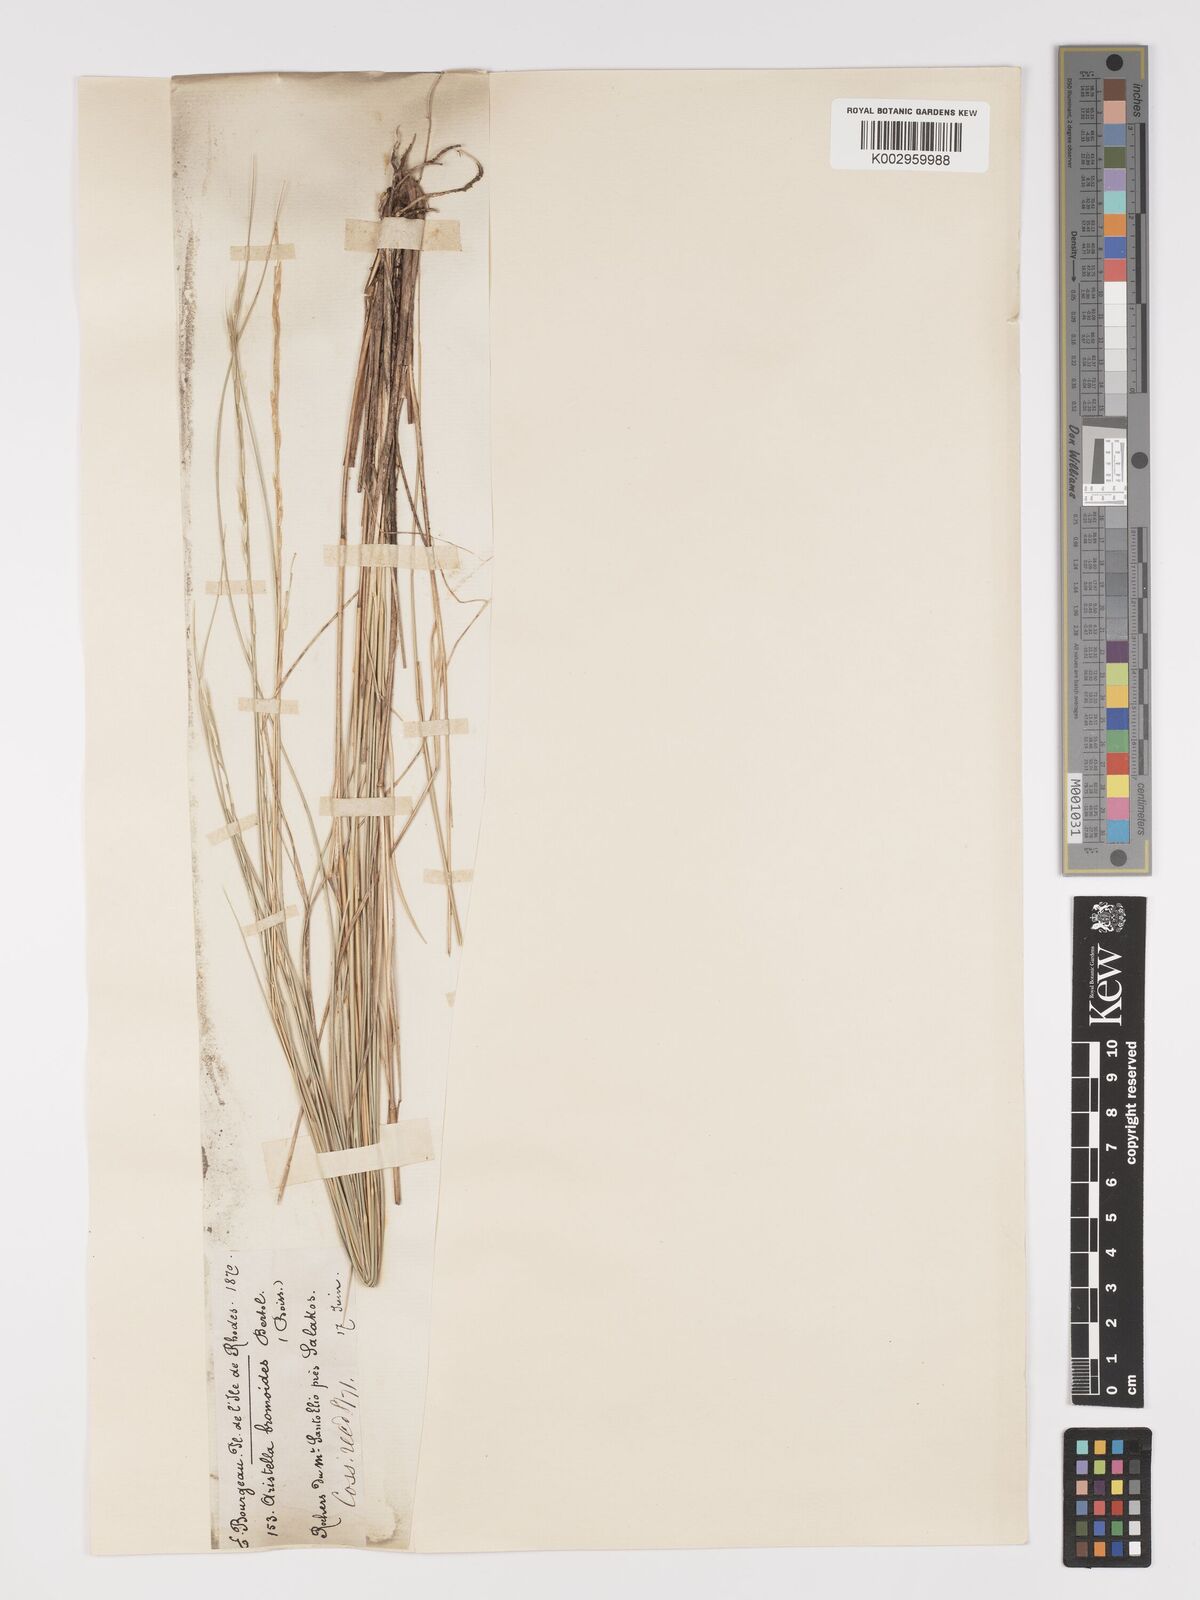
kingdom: Plantae
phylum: Tracheophyta
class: Liliopsida
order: Poales
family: Poaceae
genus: Achnatherum
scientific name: Achnatherum bromoides
